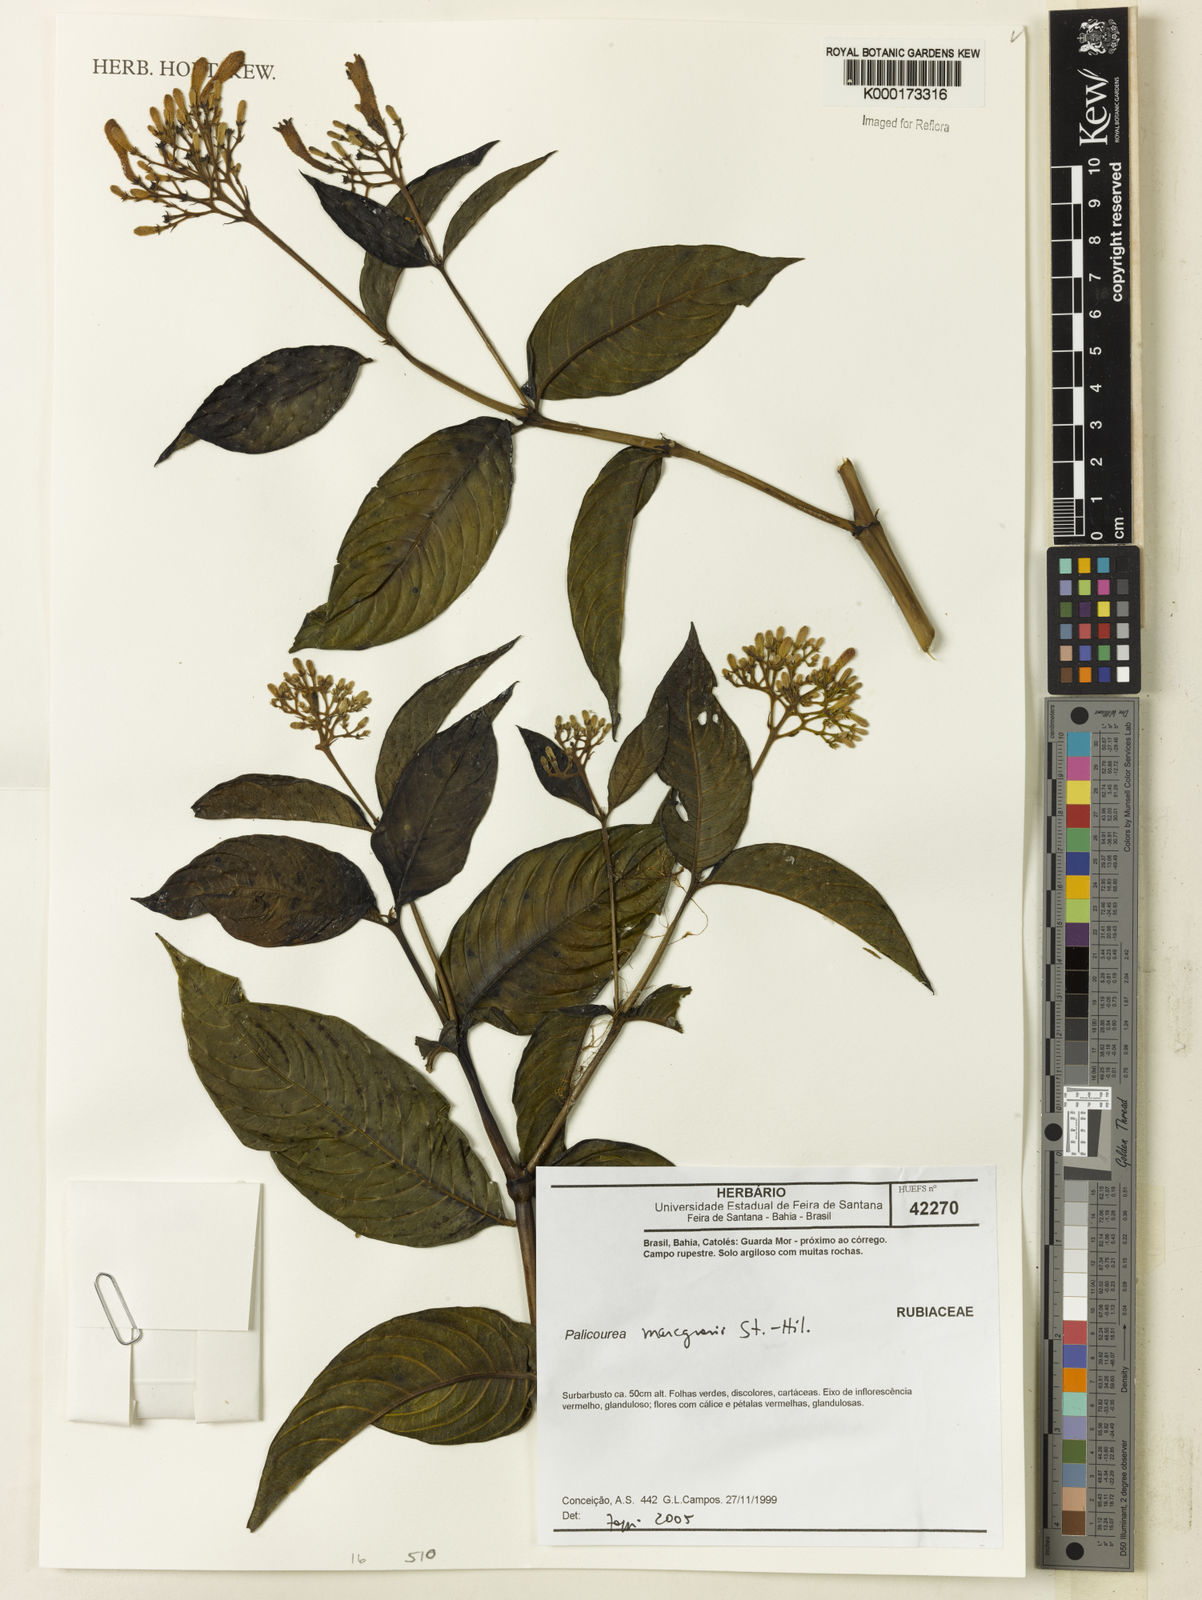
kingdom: Plantae
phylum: Tracheophyta
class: Magnoliopsida
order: Gentianales
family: Rubiaceae
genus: Palicourea
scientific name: Palicourea marcgravii
